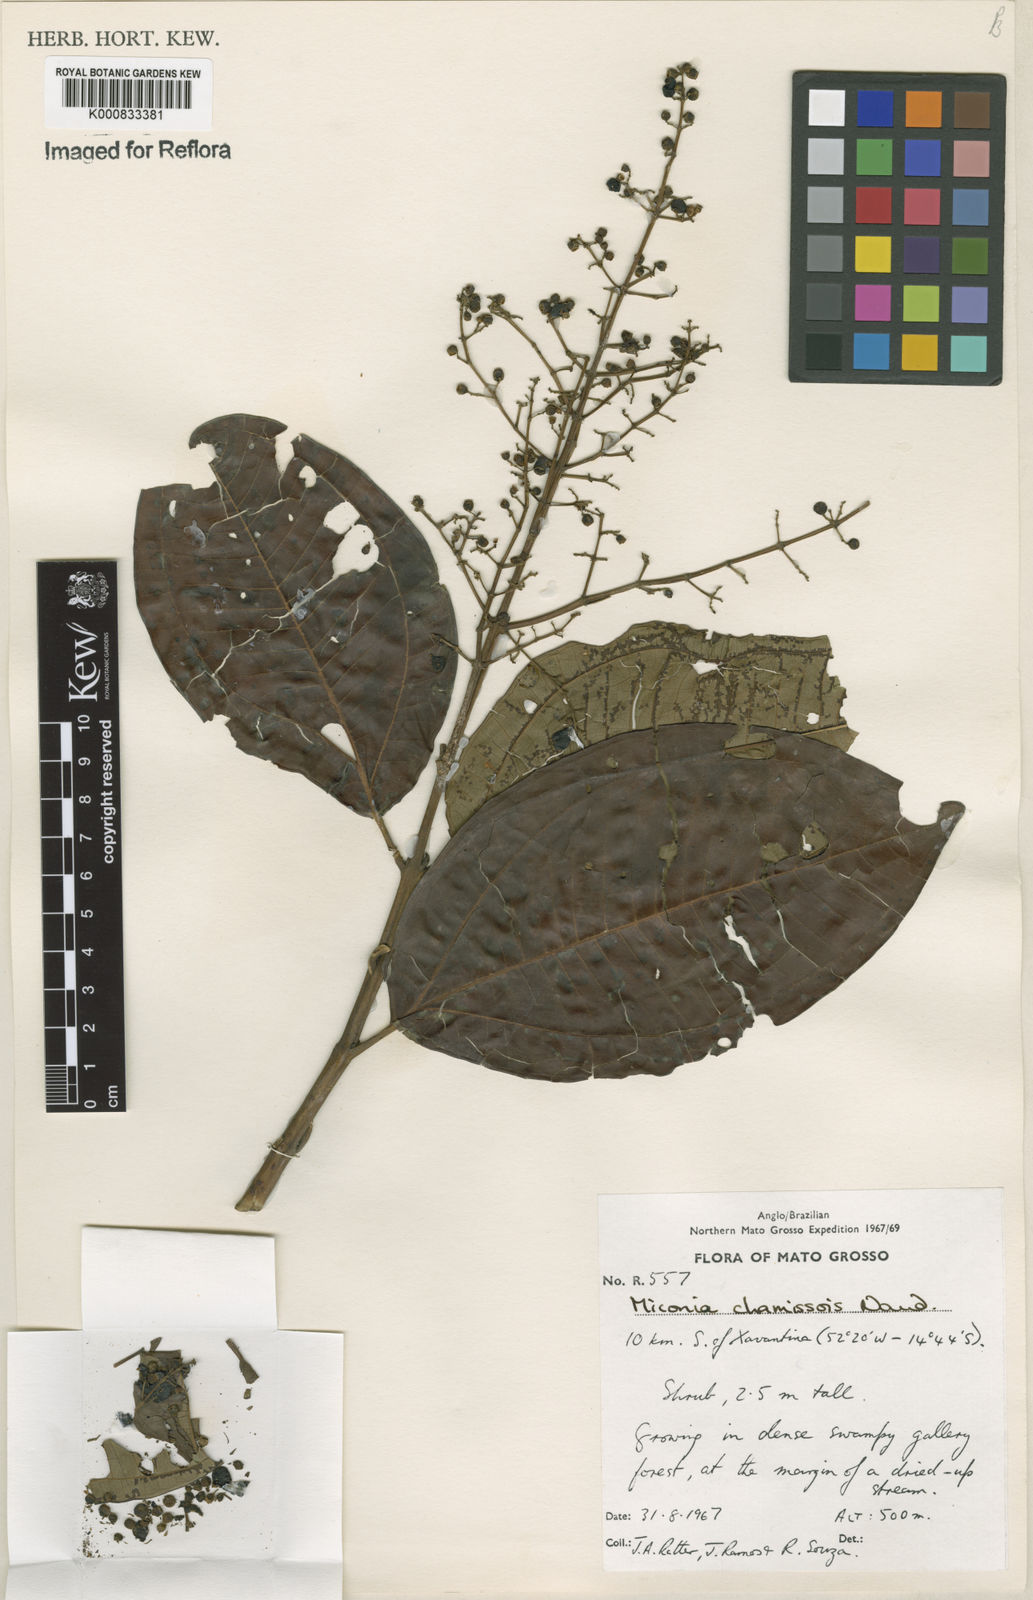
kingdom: Plantae
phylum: Tracheophyta
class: Magnoliopsida
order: Myrtales
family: Melastomataceae
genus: Miconia
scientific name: Miconia chamissois
